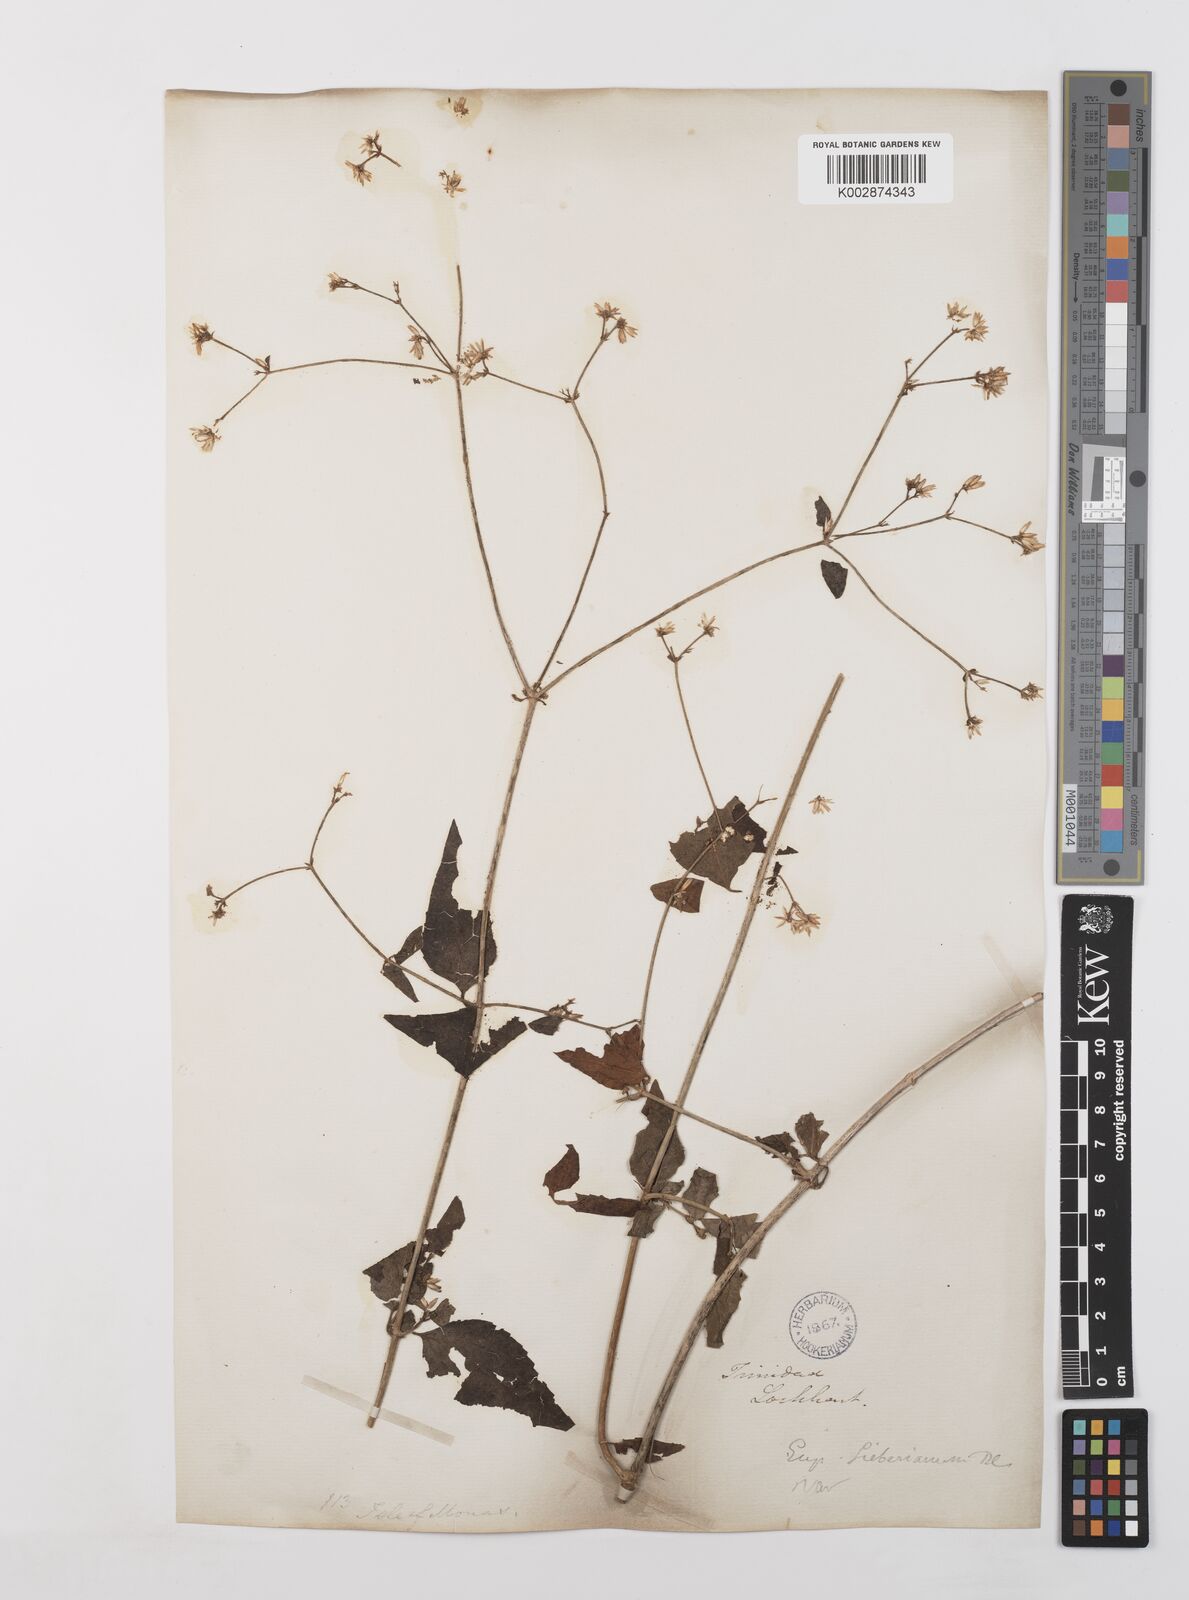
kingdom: Plantae
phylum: Tracheophyta
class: Magnoliopsida
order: Asterales
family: Asteraceae
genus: Condylidium
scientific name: Condylidium iresinoides
